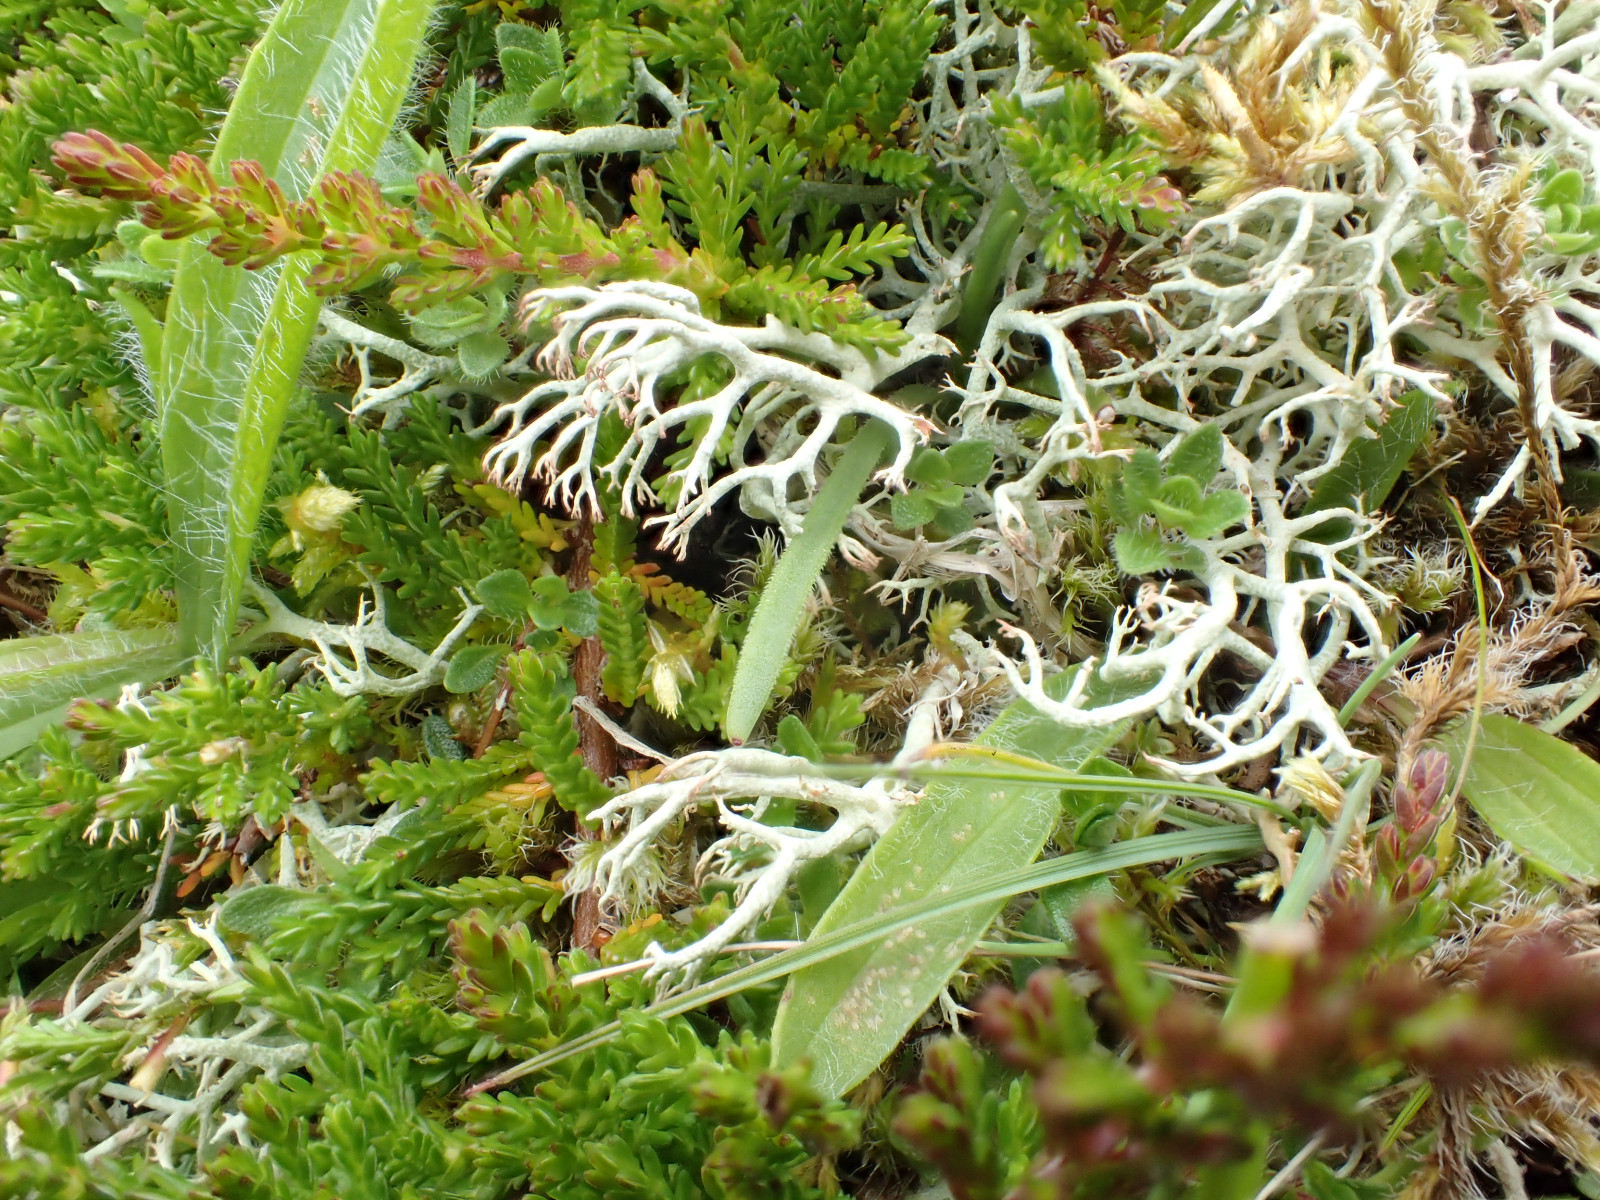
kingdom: Fungi
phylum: Ascomycota
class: Lecanoromycetes
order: Lecanorales
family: Cladoniaceae
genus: Cladonia
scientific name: Cladonia ciliata
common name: spinkel rensdyrlav
